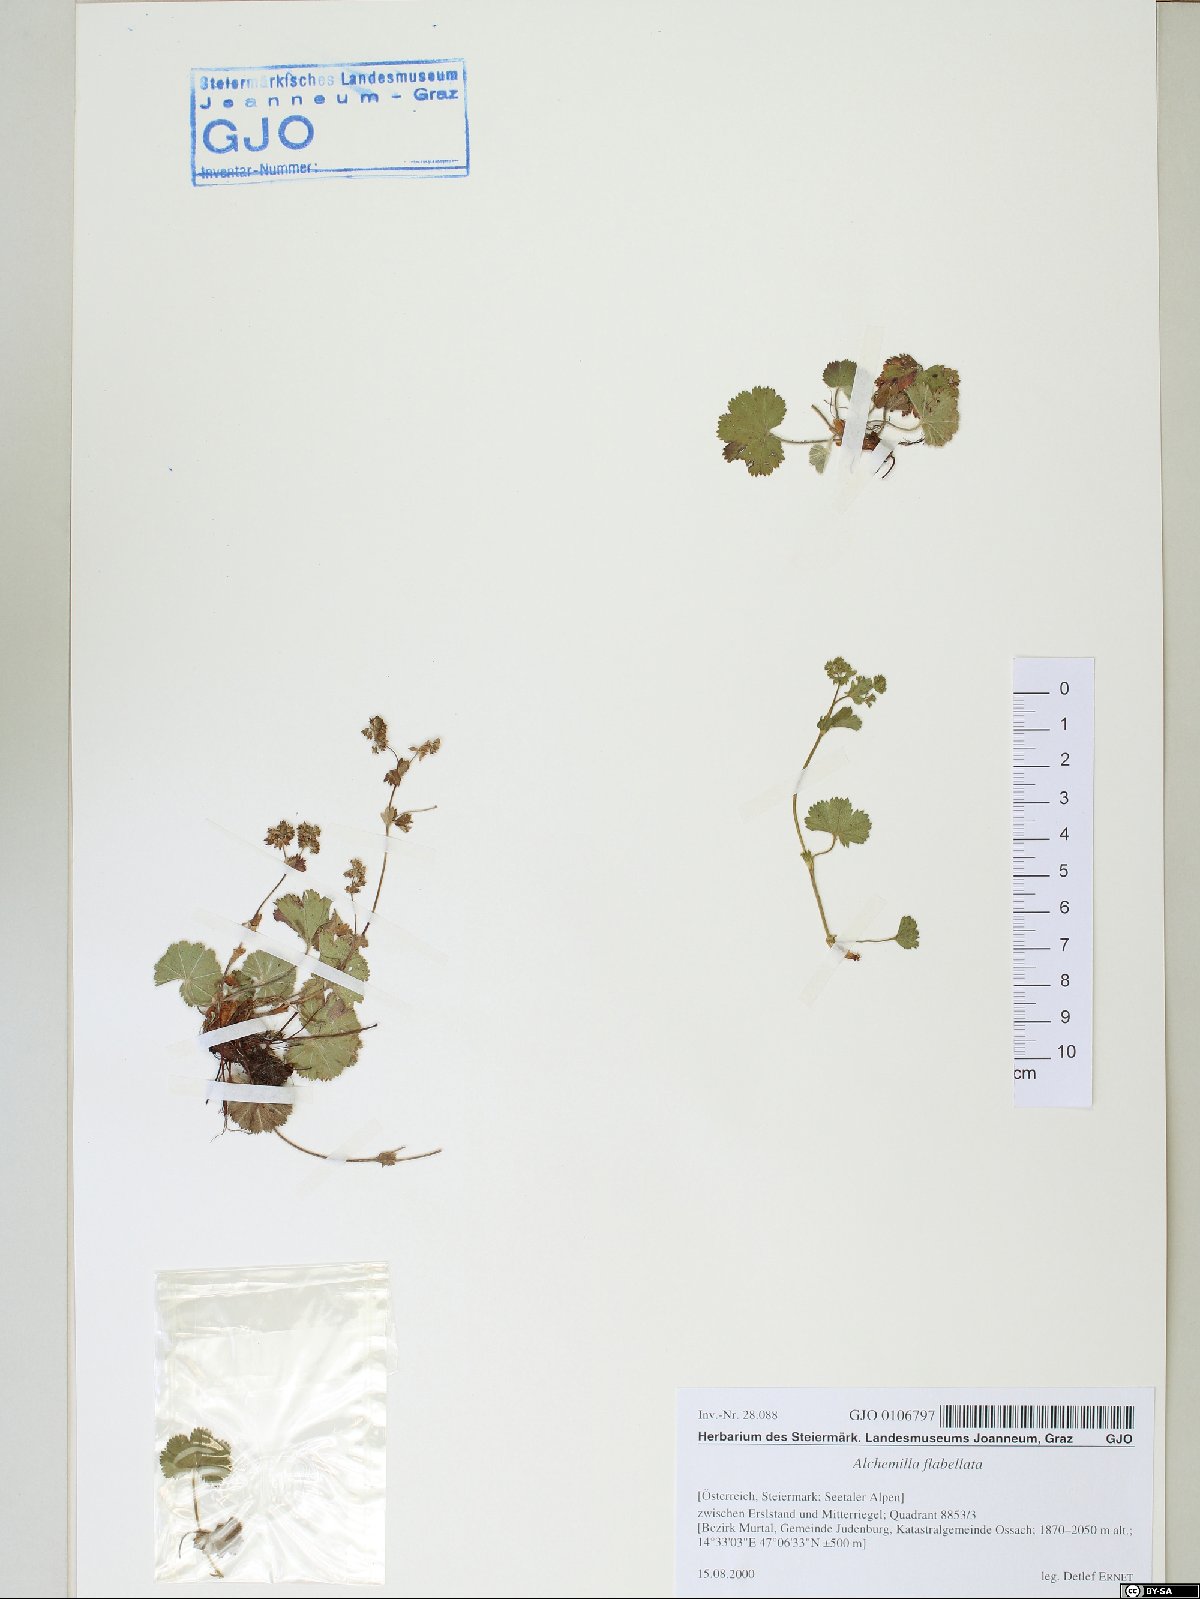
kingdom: Plantae
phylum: Tracheophyta
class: Magnoliopsida
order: Rosales
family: Rosaceae
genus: Alchemilla
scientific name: Alchemilla flabellata
